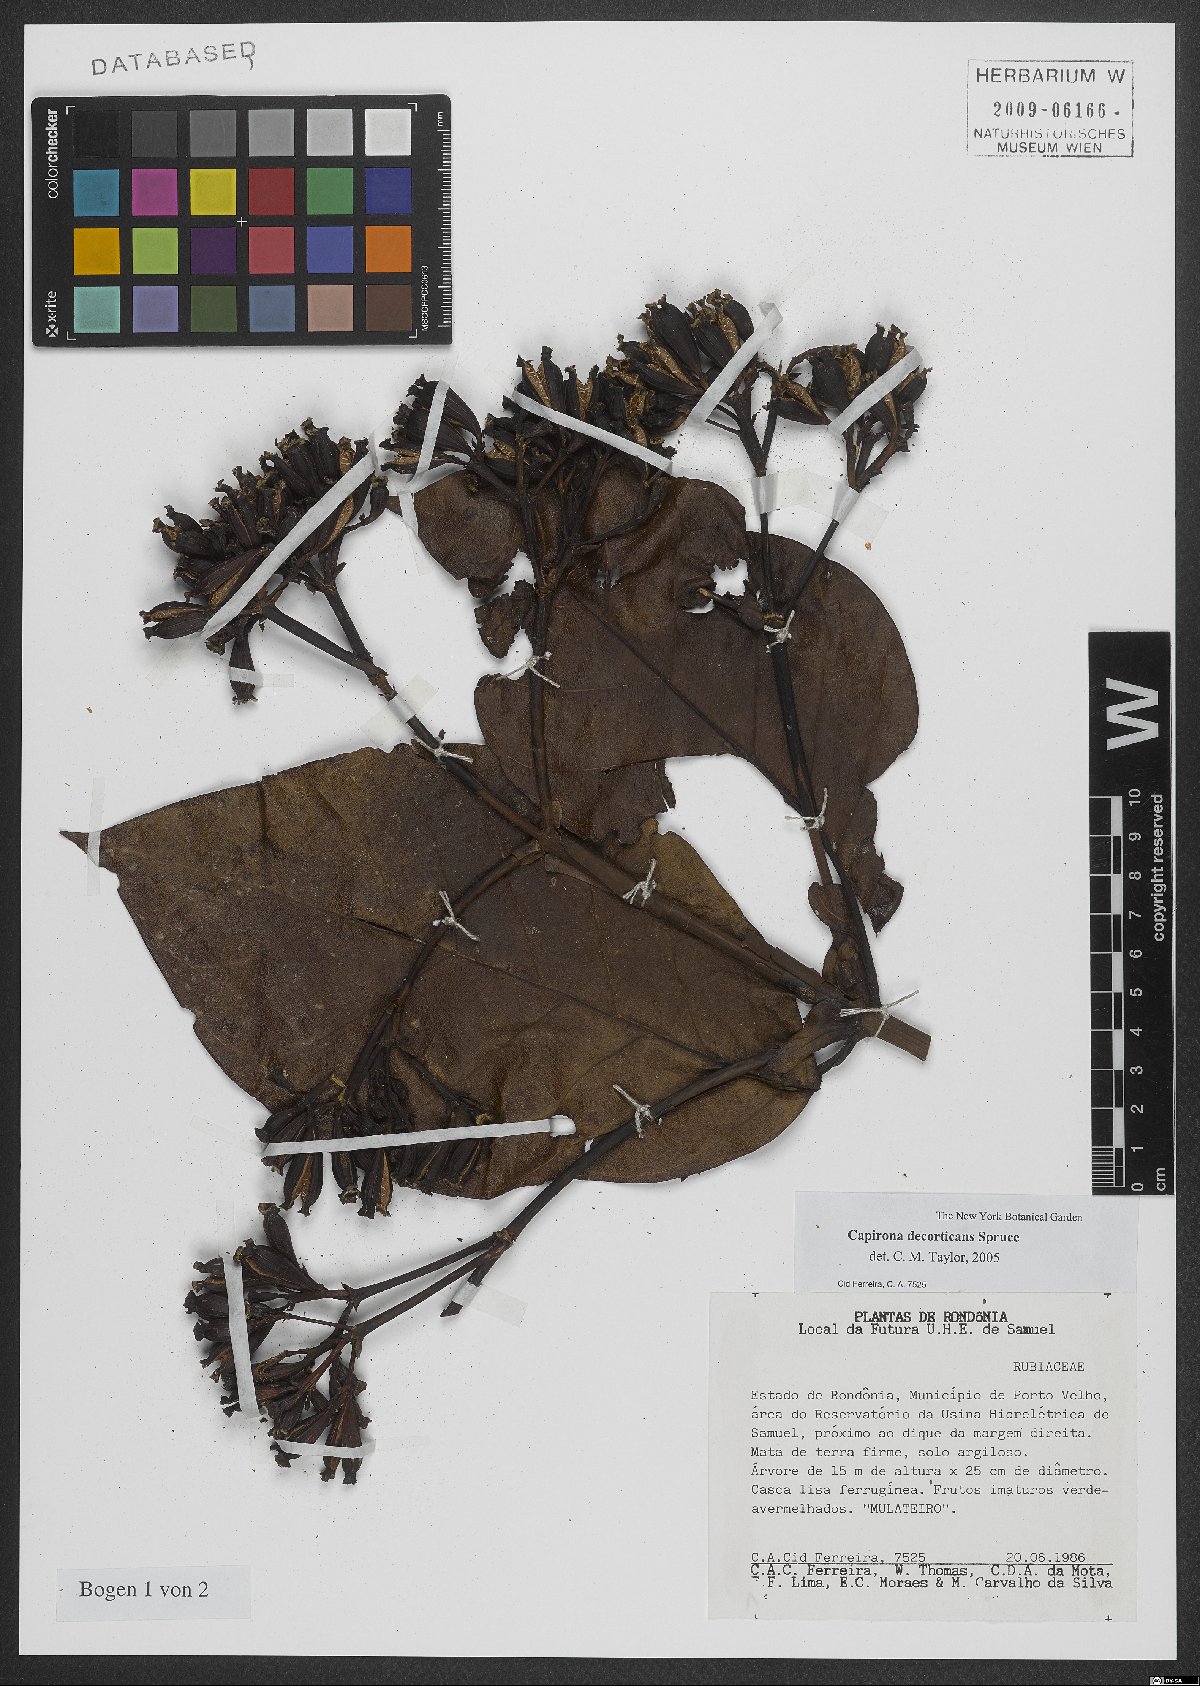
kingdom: Plantae
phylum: Tracheophyta
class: Magnoliopsida
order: Gentianales
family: Rubiaceae
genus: Capirona
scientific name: Capirona macrophylla
